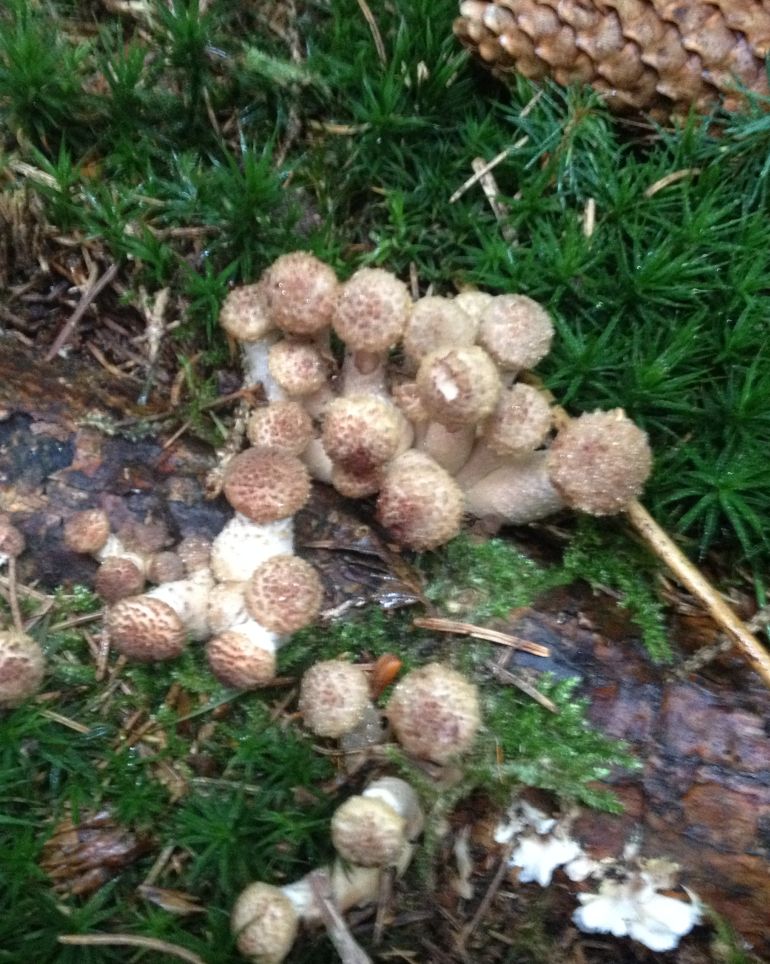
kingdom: Fungi
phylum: Basidiomycota
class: Agaricomycetes
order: Agaricales
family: Physalacriaceae
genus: Armillaria
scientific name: Armillaria ostoyae
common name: mørk honningsvamp
